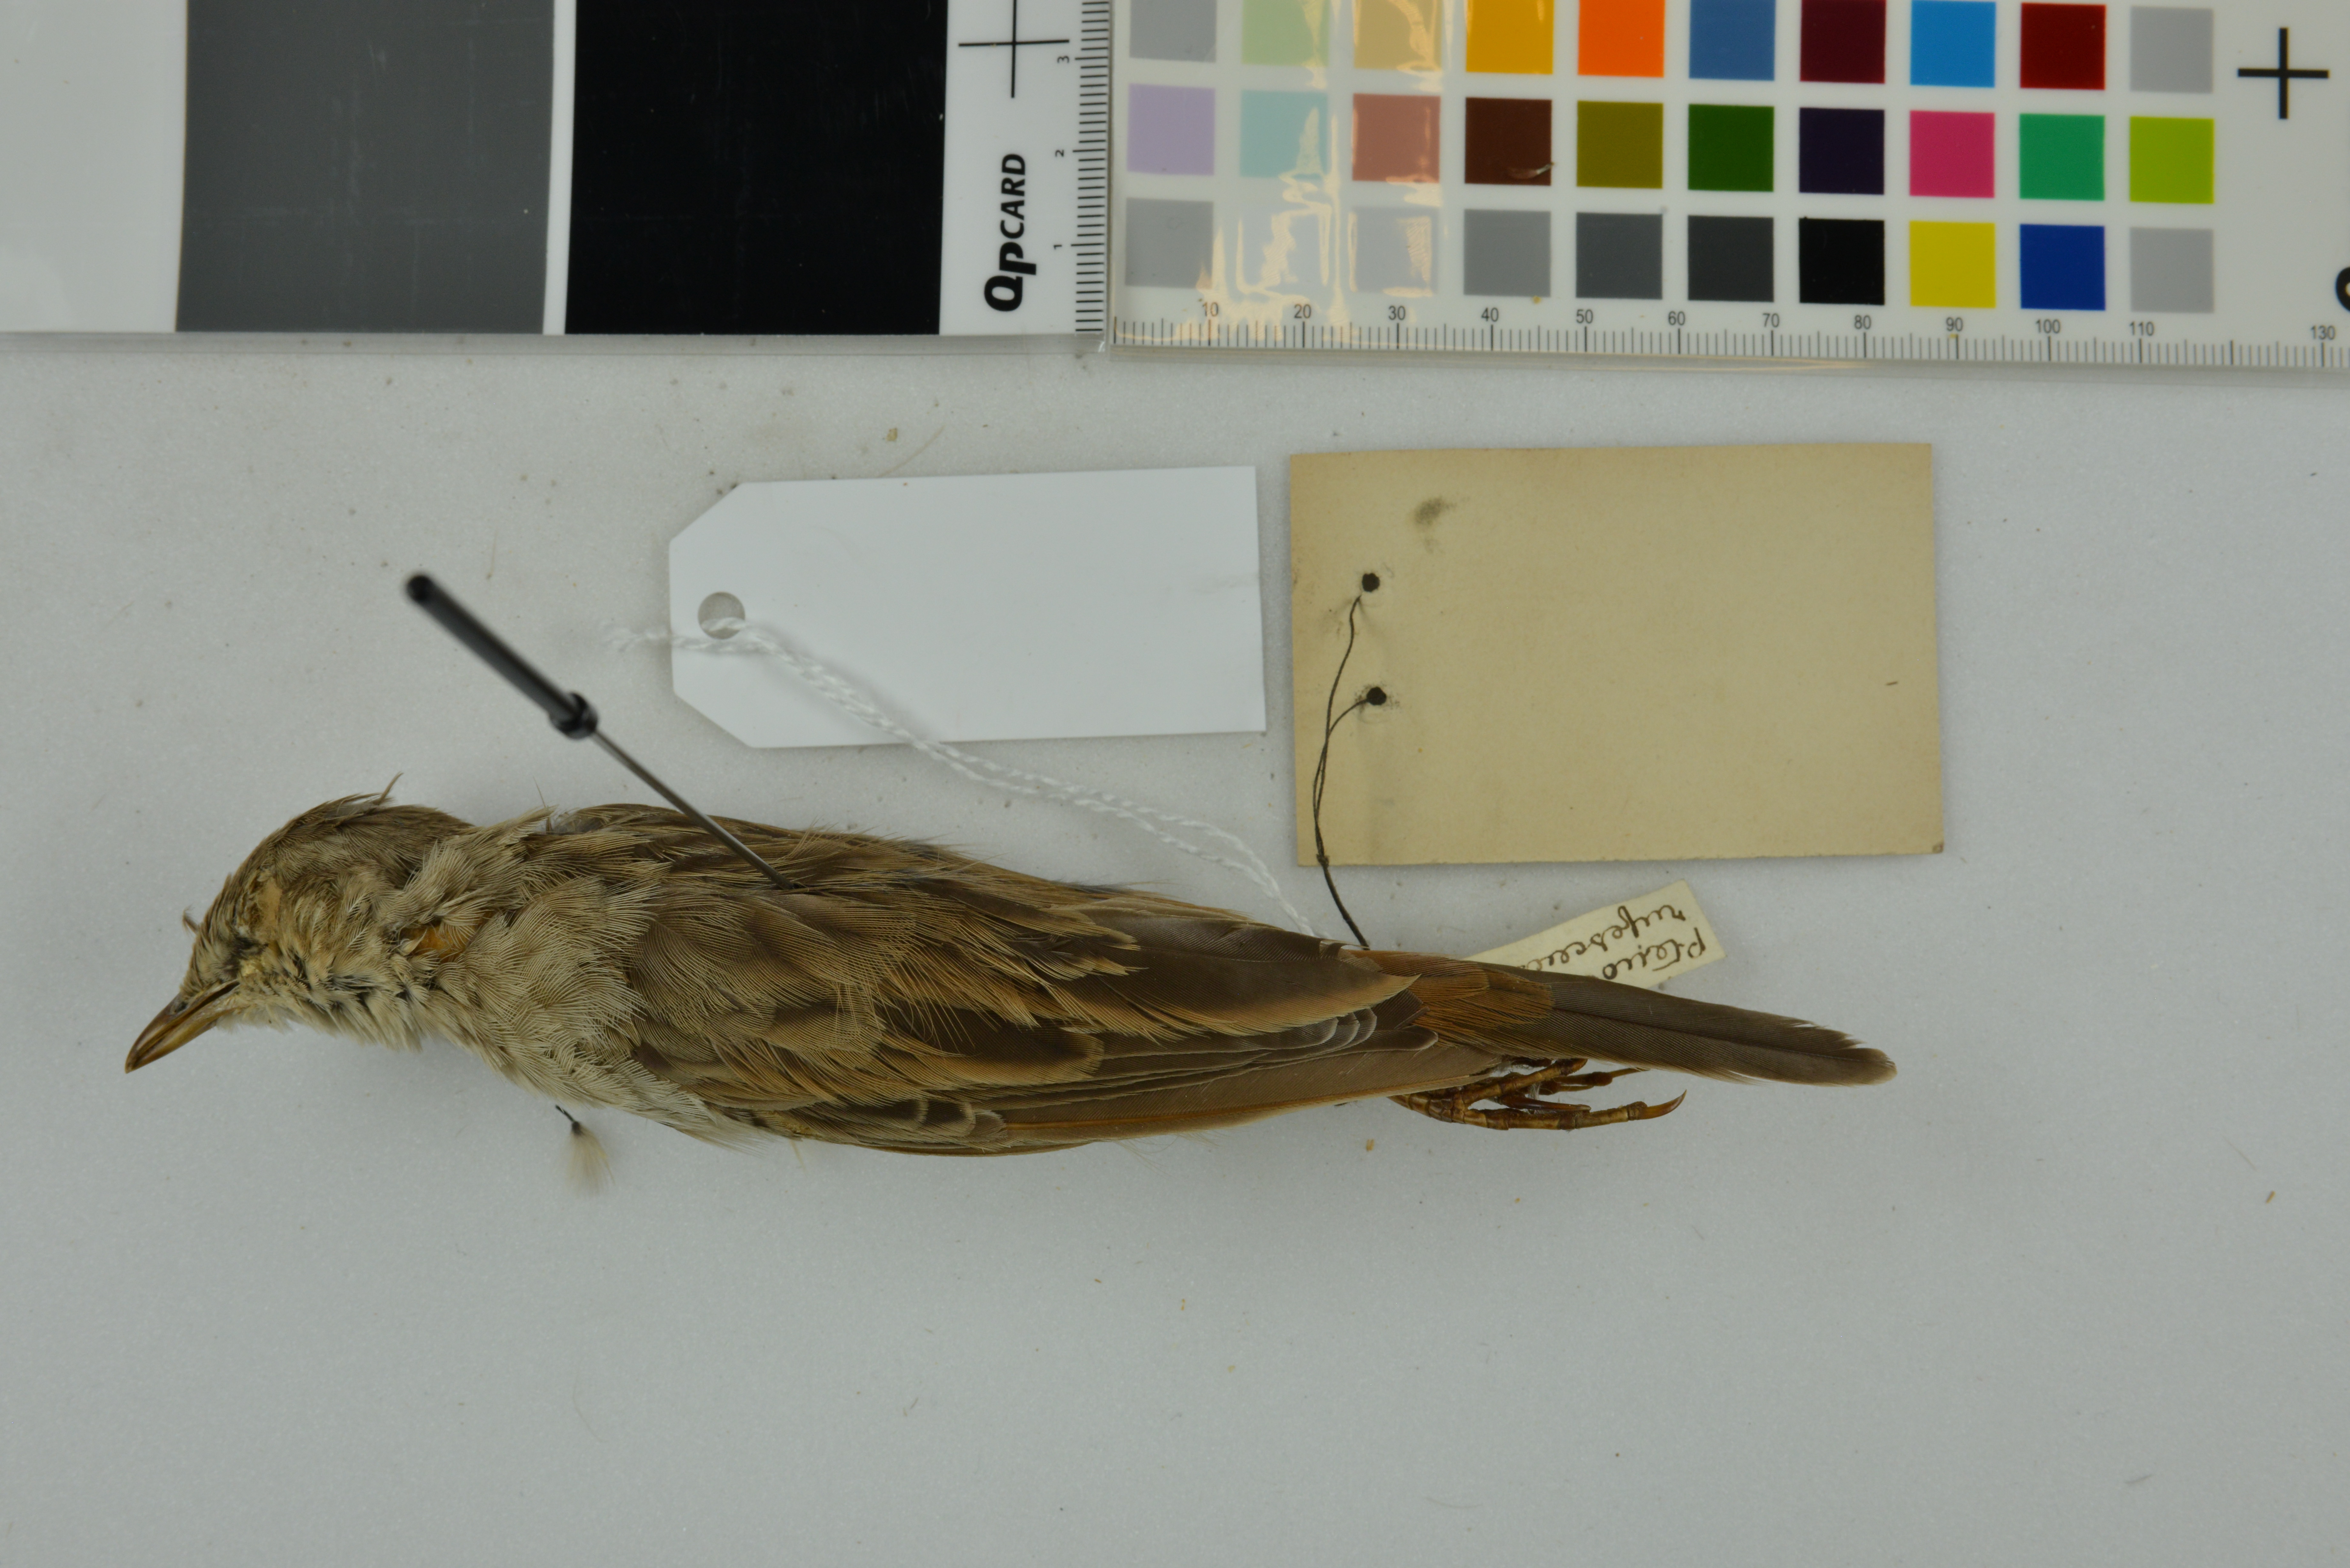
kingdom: Animalia
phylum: Chordata
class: Aves
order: Passeriformes
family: Locustellidae
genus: Megalurus
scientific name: Megalurus mathewsi
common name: Rufous songlark
